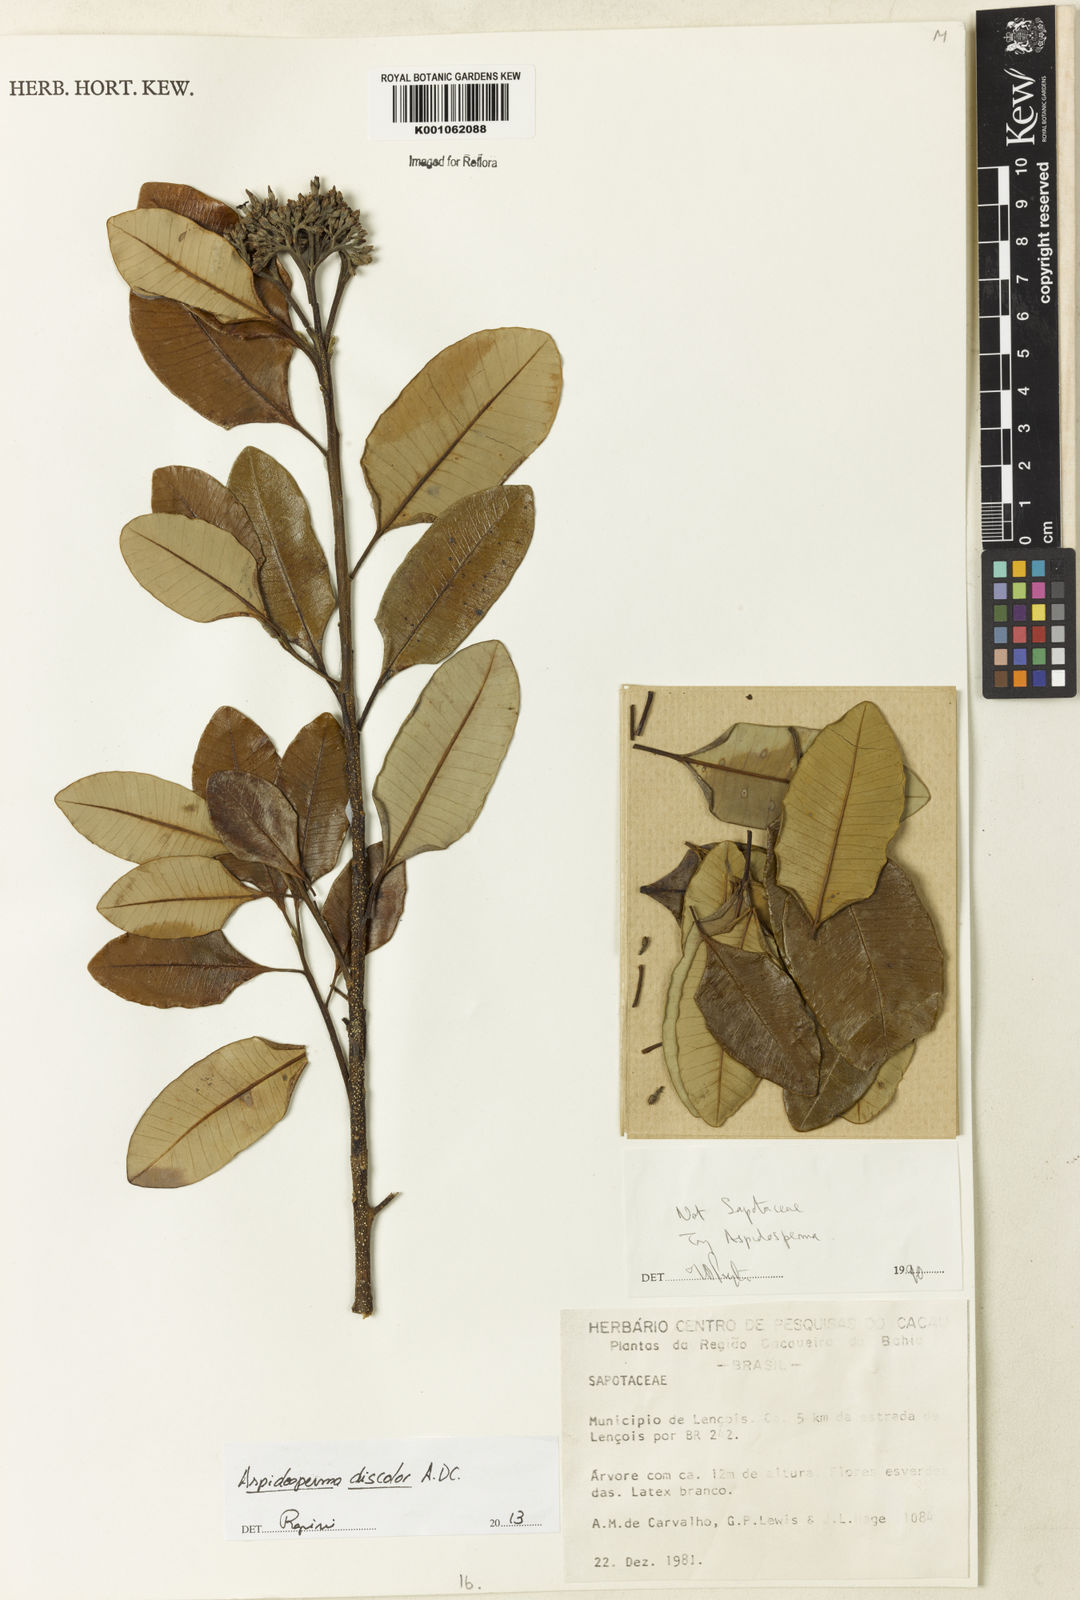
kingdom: Plantae
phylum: Tracheophyta
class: Magnoliopsida
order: Gentianales
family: Apocynaceae
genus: Aspidosperma
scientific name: Aspidosperma discolor
